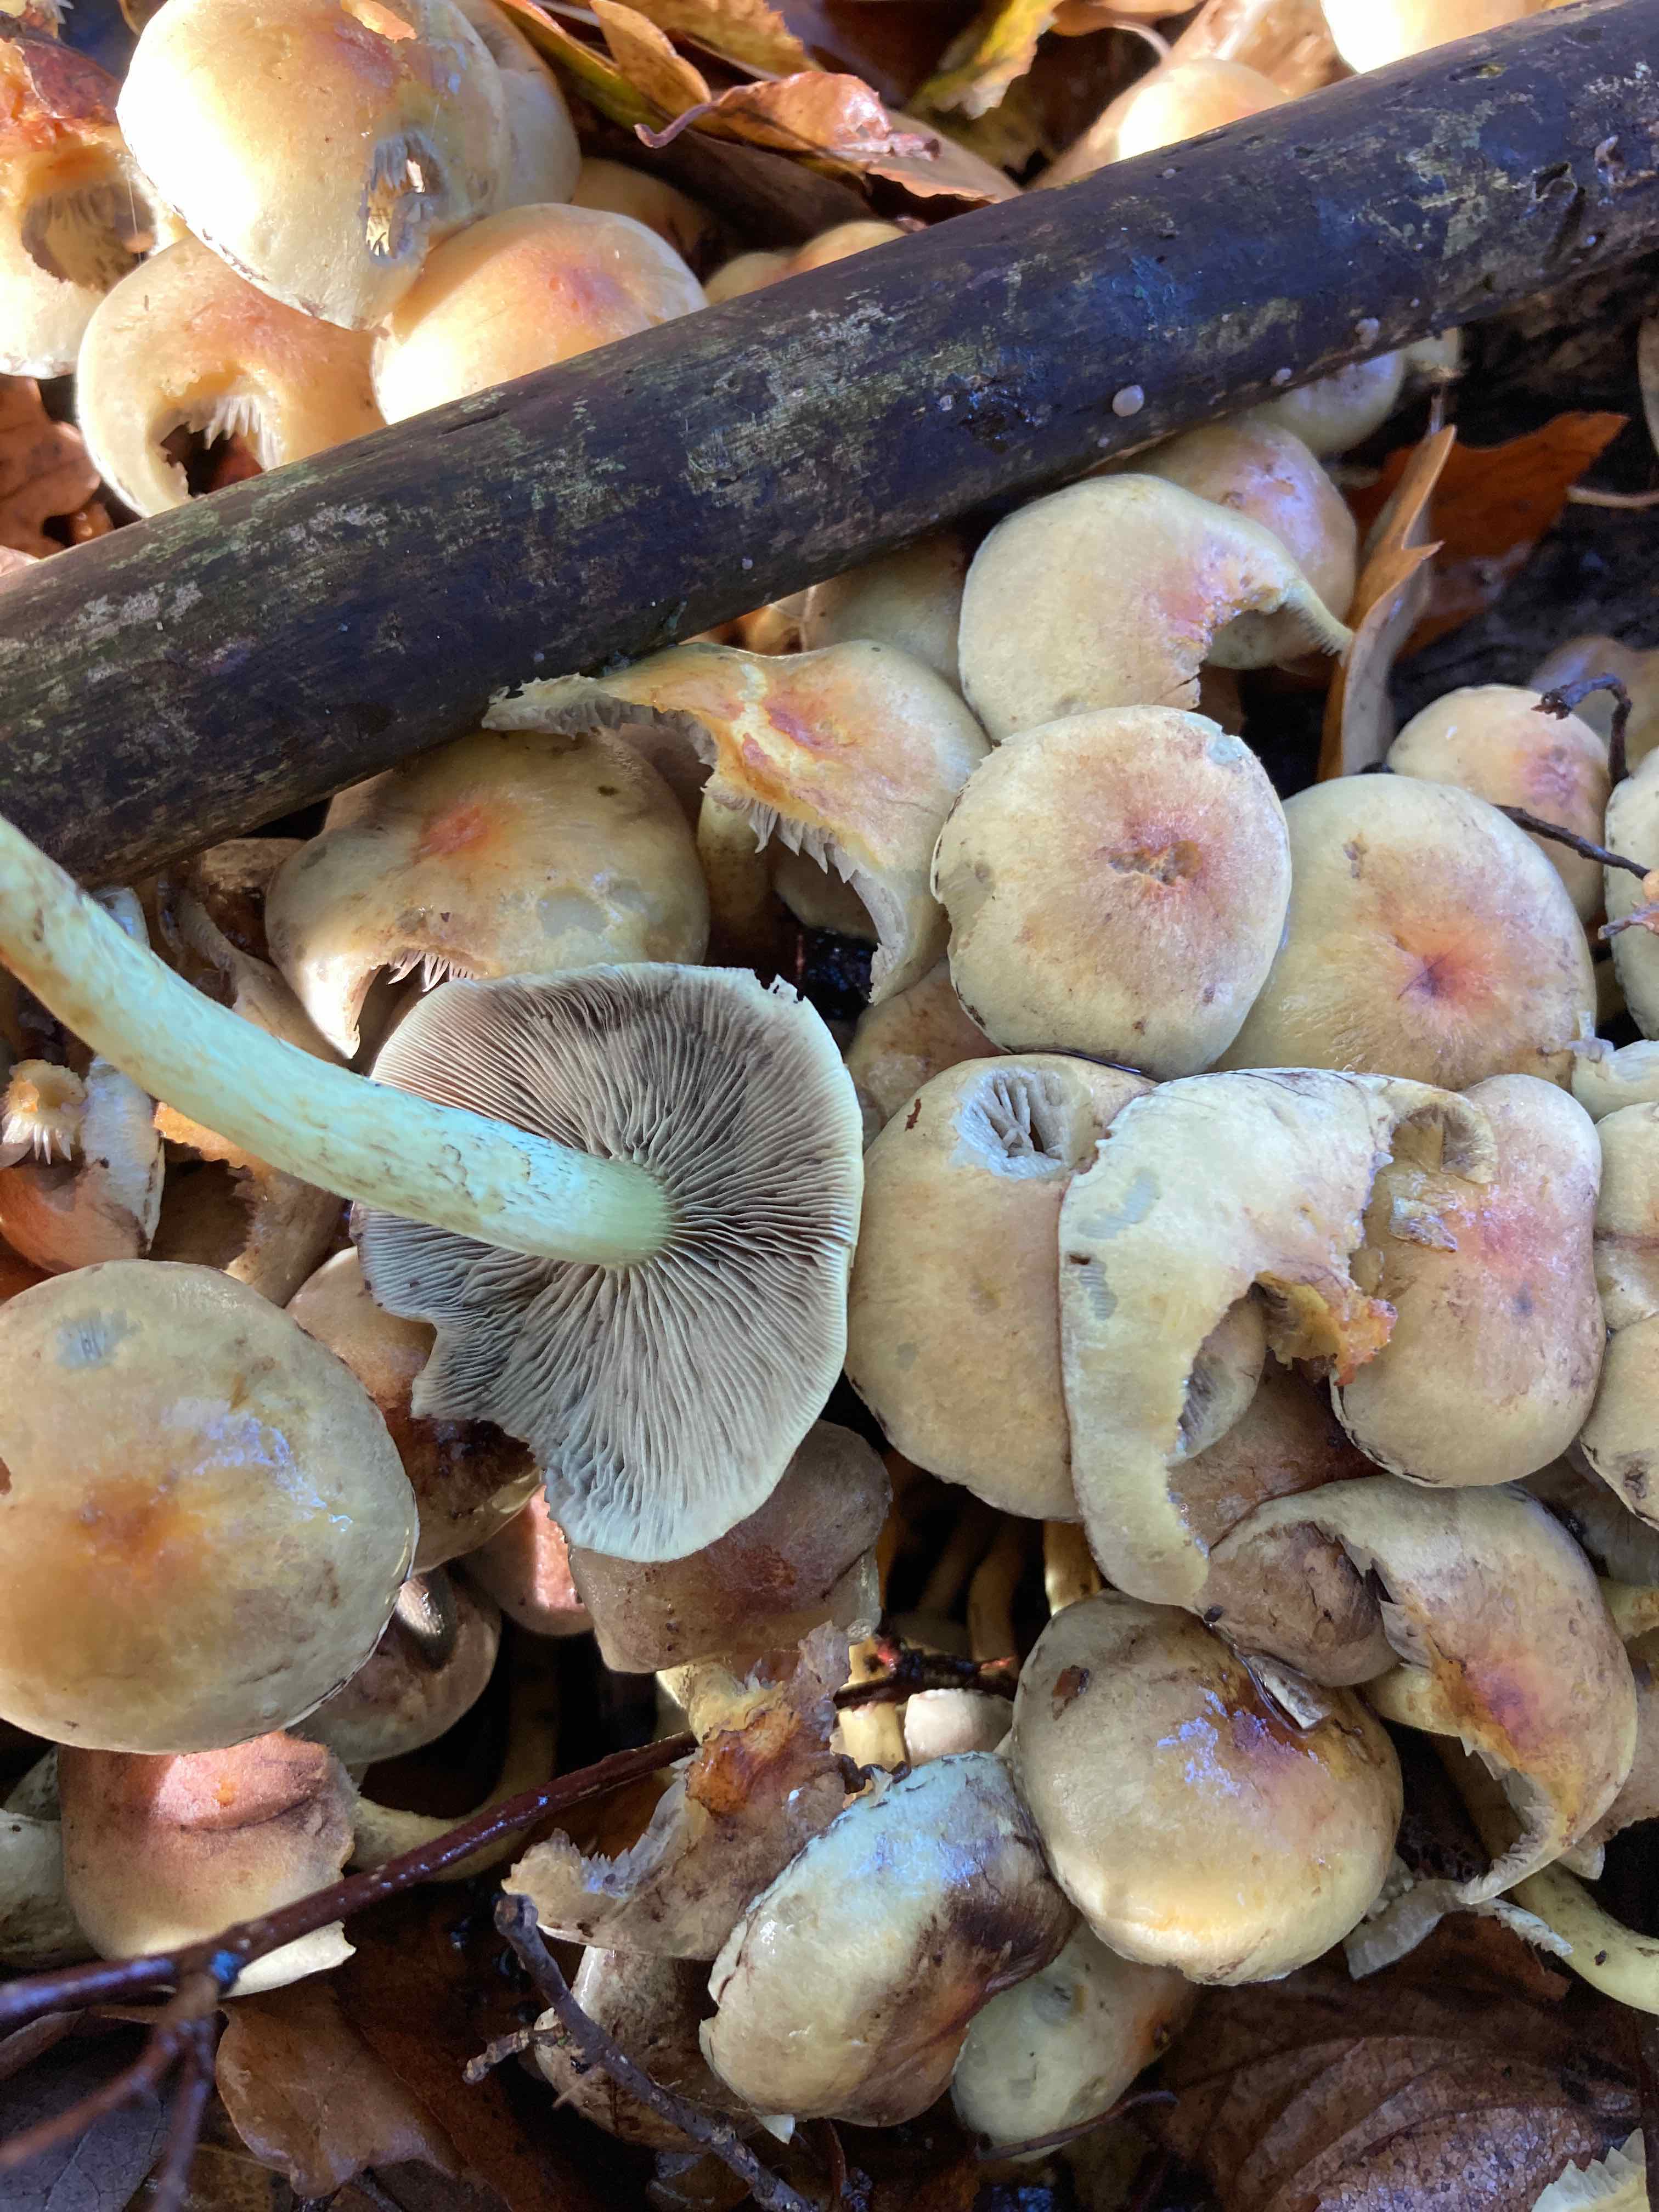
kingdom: Fungi
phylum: Basidiomycota
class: Agaricomycetes
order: Agaricales
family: Strophariaceae
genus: Hypholoma
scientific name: Hypholoma fasciculare
